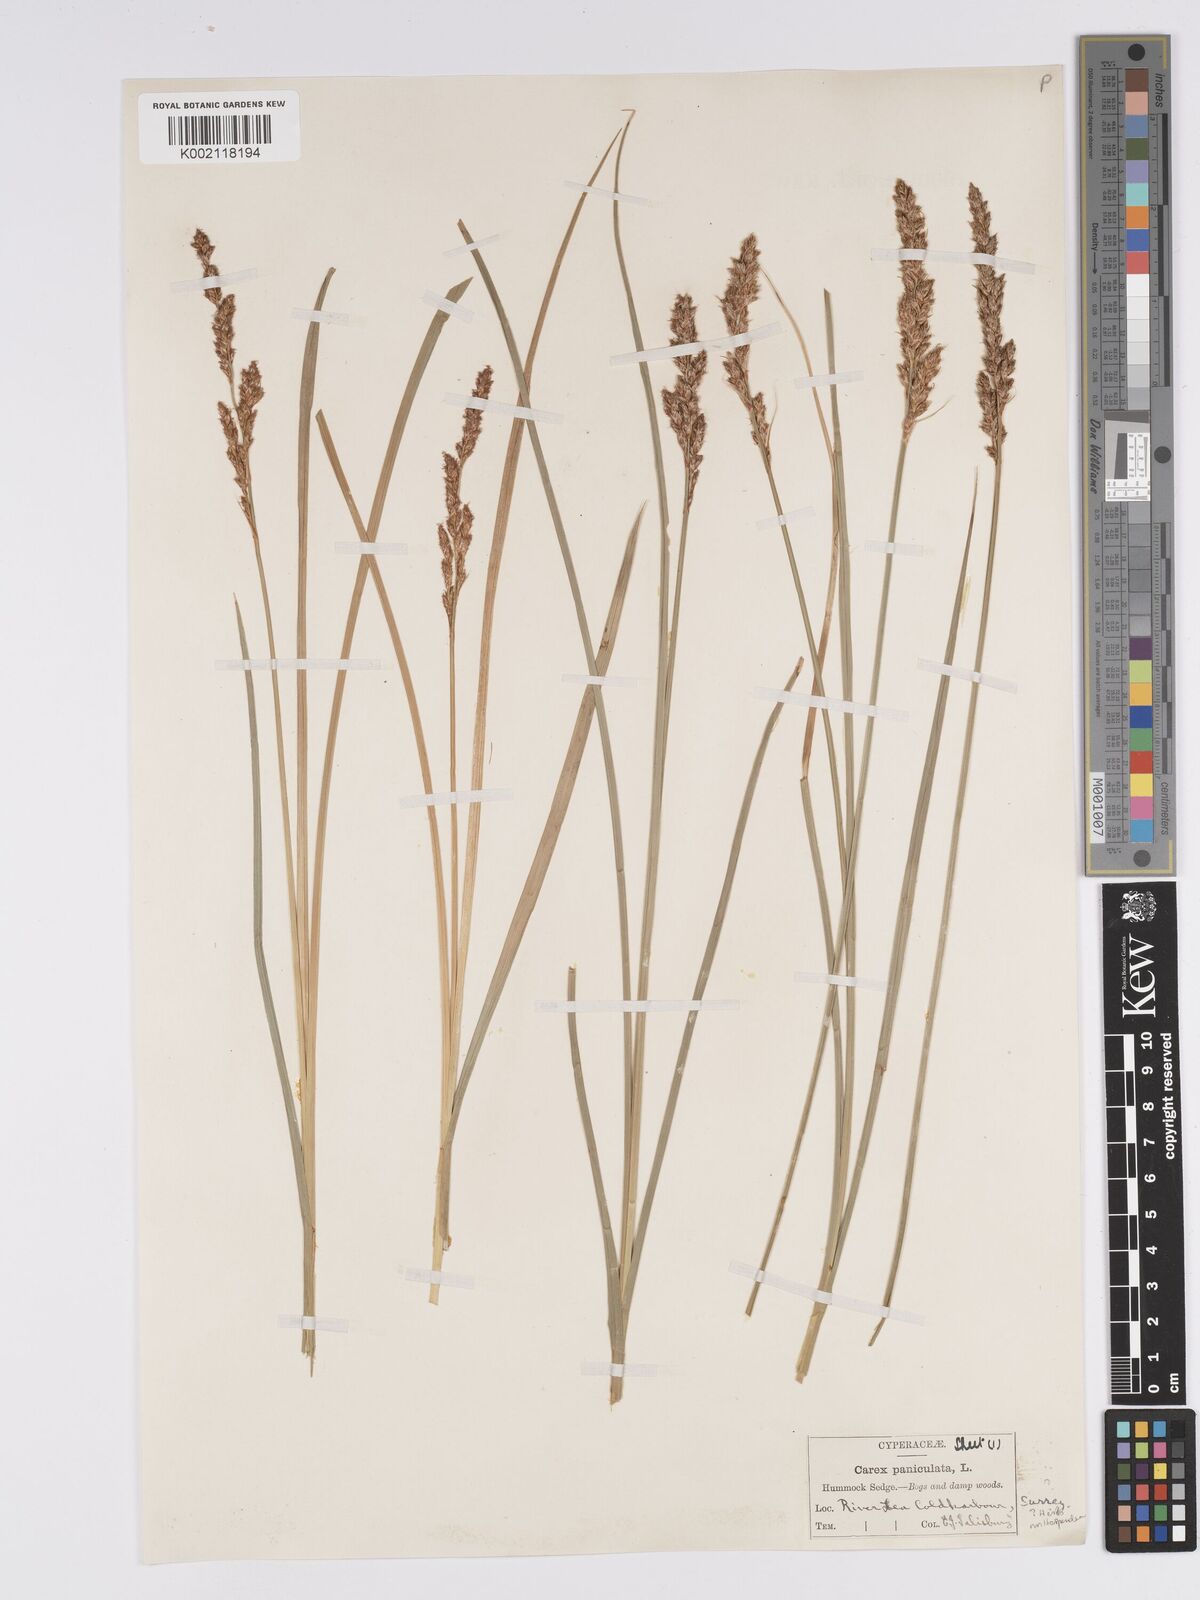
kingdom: Plantae
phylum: Tracheophyta
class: Liliopsida
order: Poales
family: Cyperaceae
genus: Carex
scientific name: Carex paniculata
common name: Greater tussock-sedge
